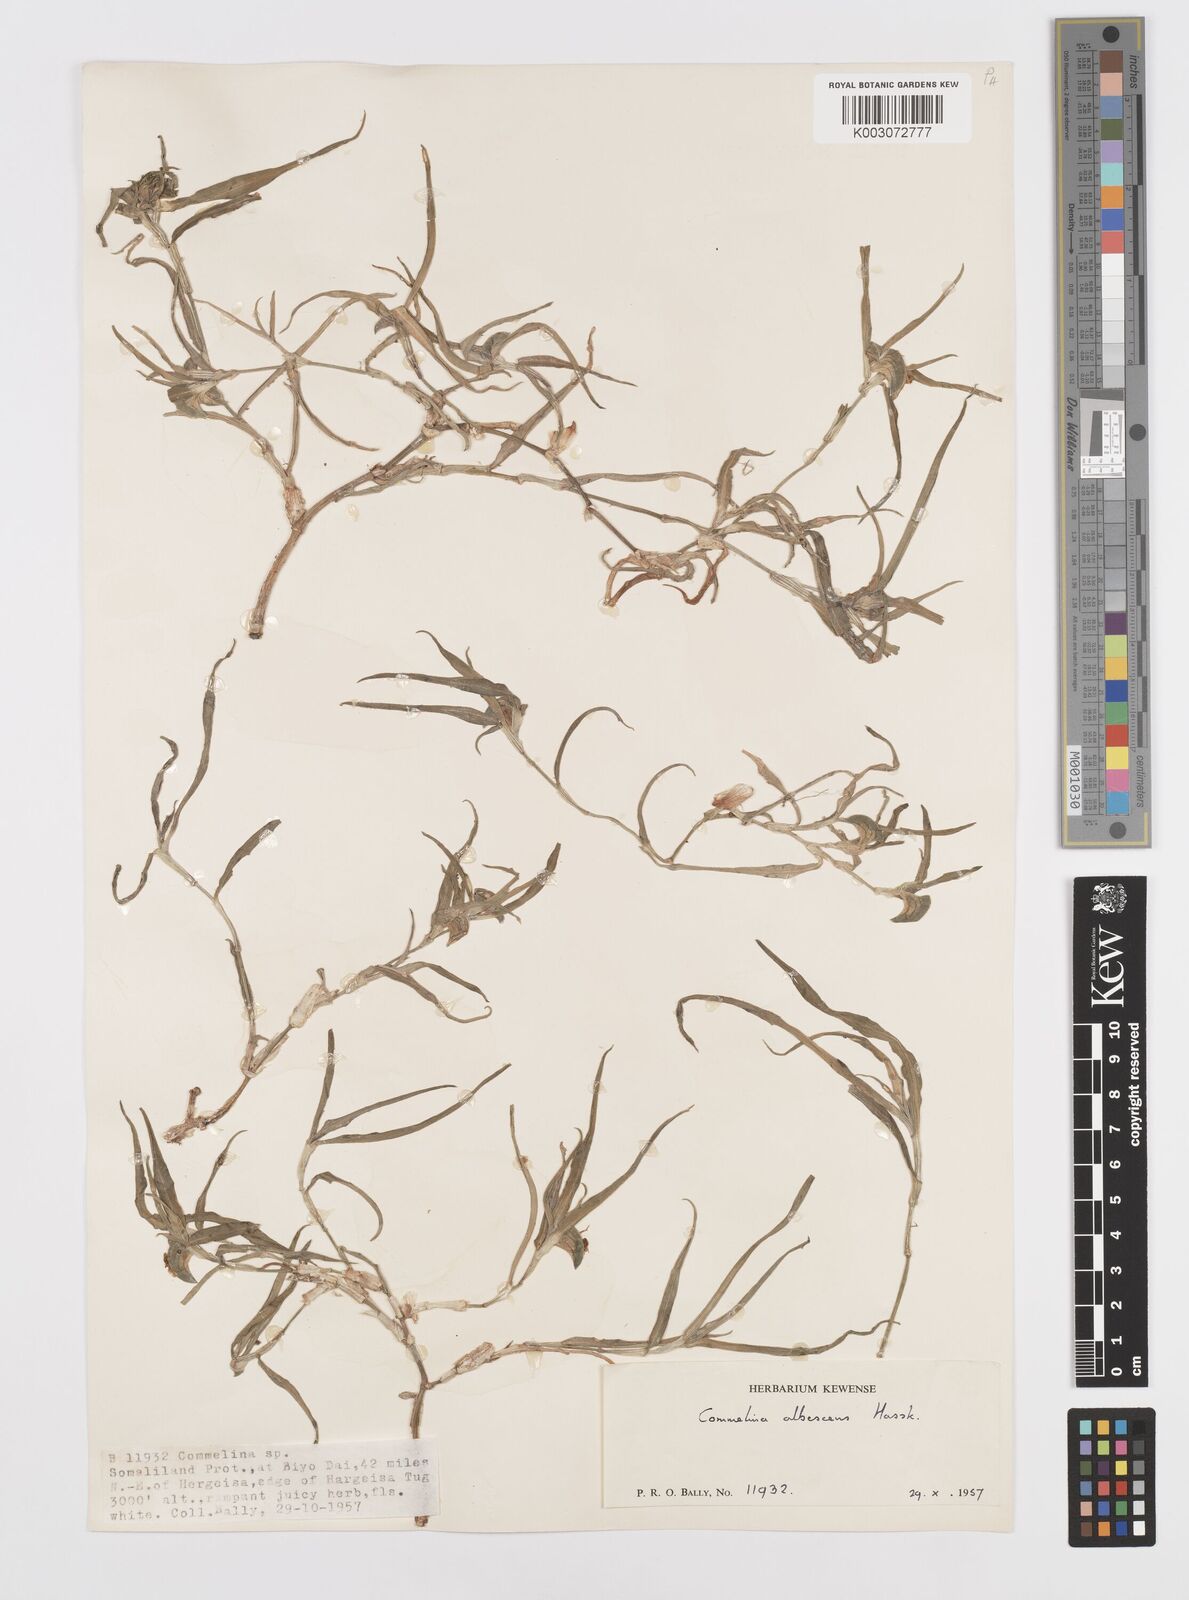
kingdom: Plantae
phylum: Tracheophyta
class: Liliopsida
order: Commelinales
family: Commelinaceae
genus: Commelina
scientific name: Commelina albescens
